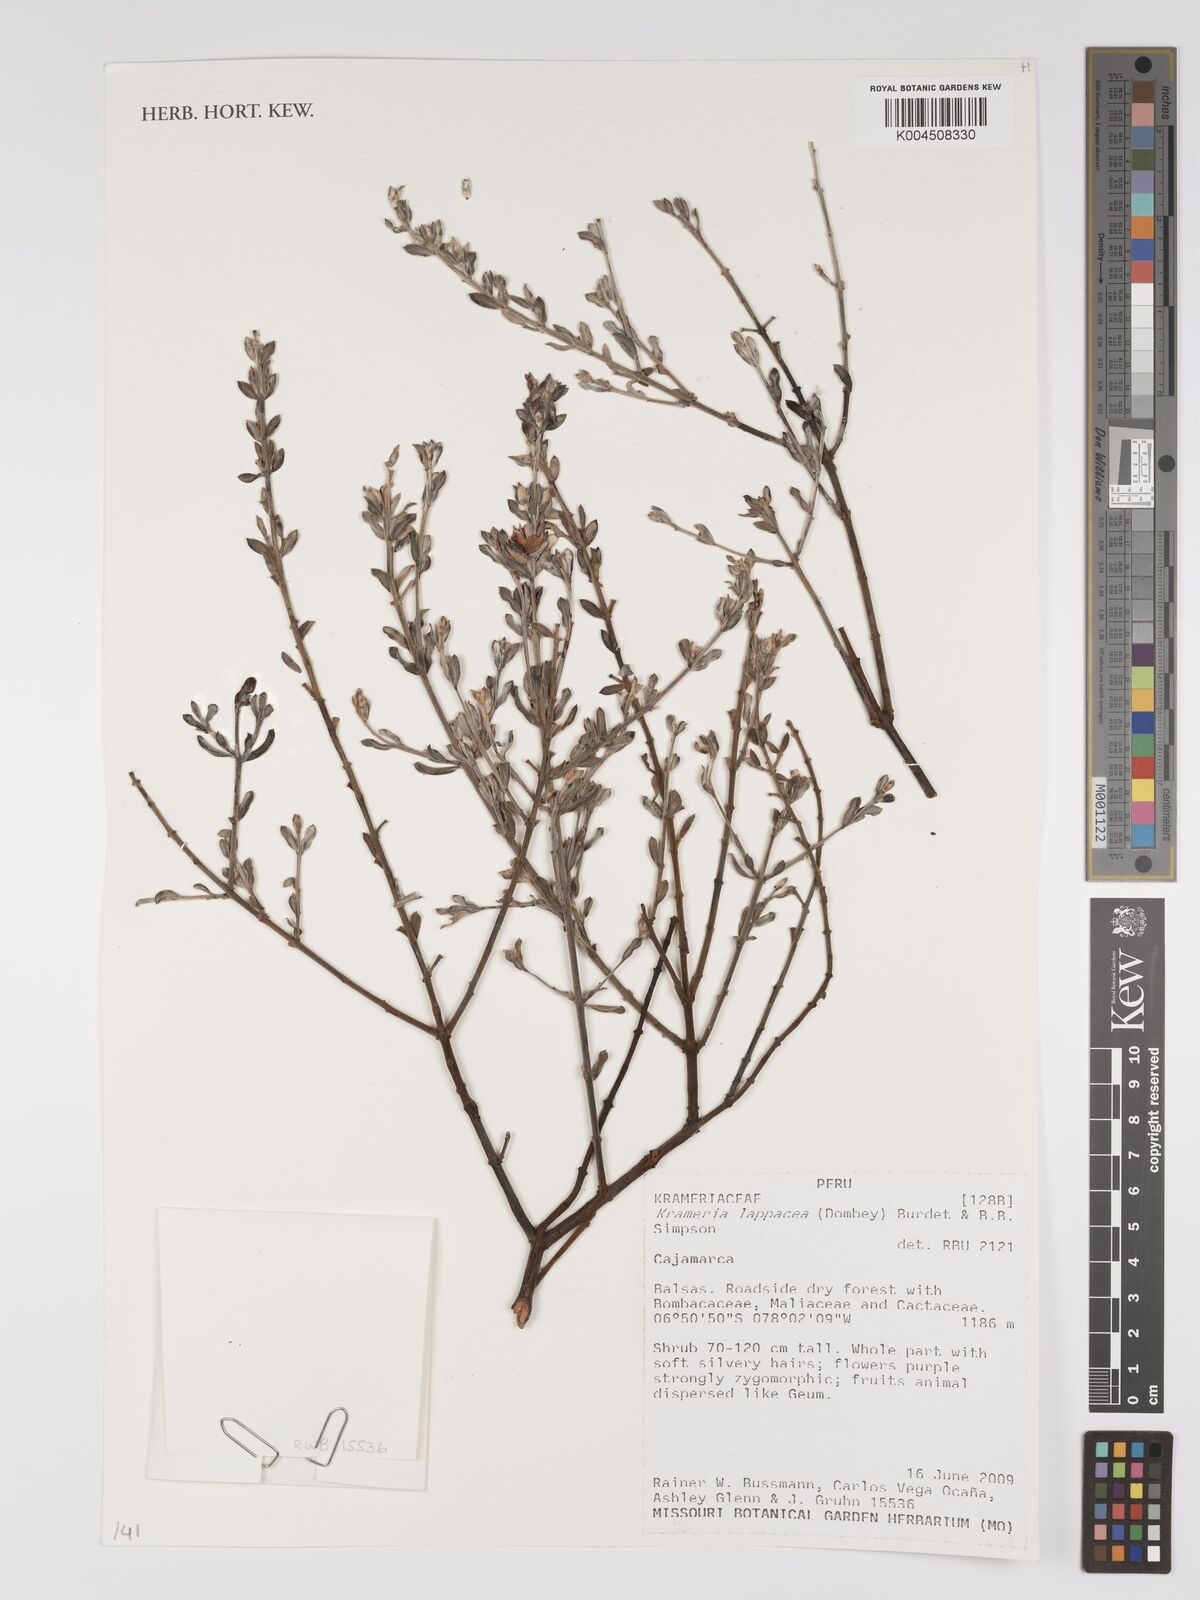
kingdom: Plantae
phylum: Tracheophyta
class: Magnoliopsida
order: Zygophyllales
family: Krameriaceae
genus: Krameria
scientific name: Krameria lappacea
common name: Rhatany
